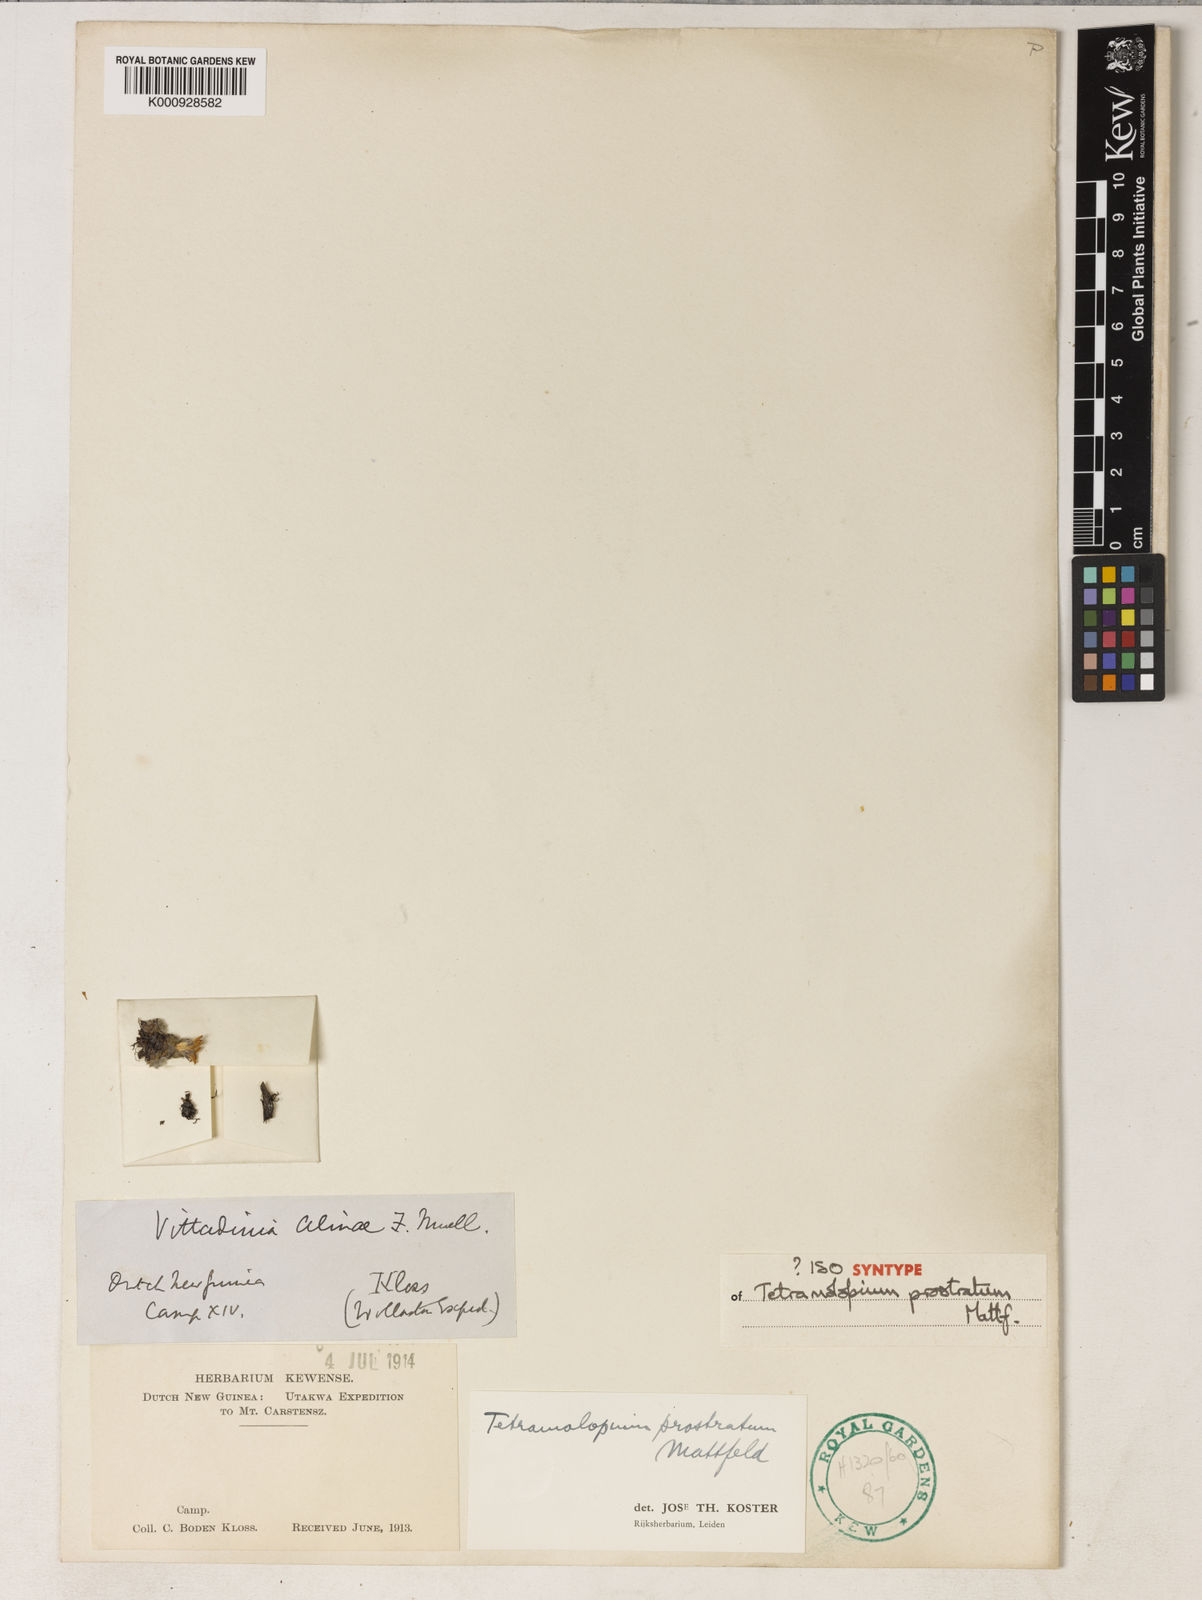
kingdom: Plantae
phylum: Tracheophyta
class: Magnoliopsida
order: Asterales
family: Asteraceae
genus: Tetramolopium
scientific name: Tetramolopium prostratum
